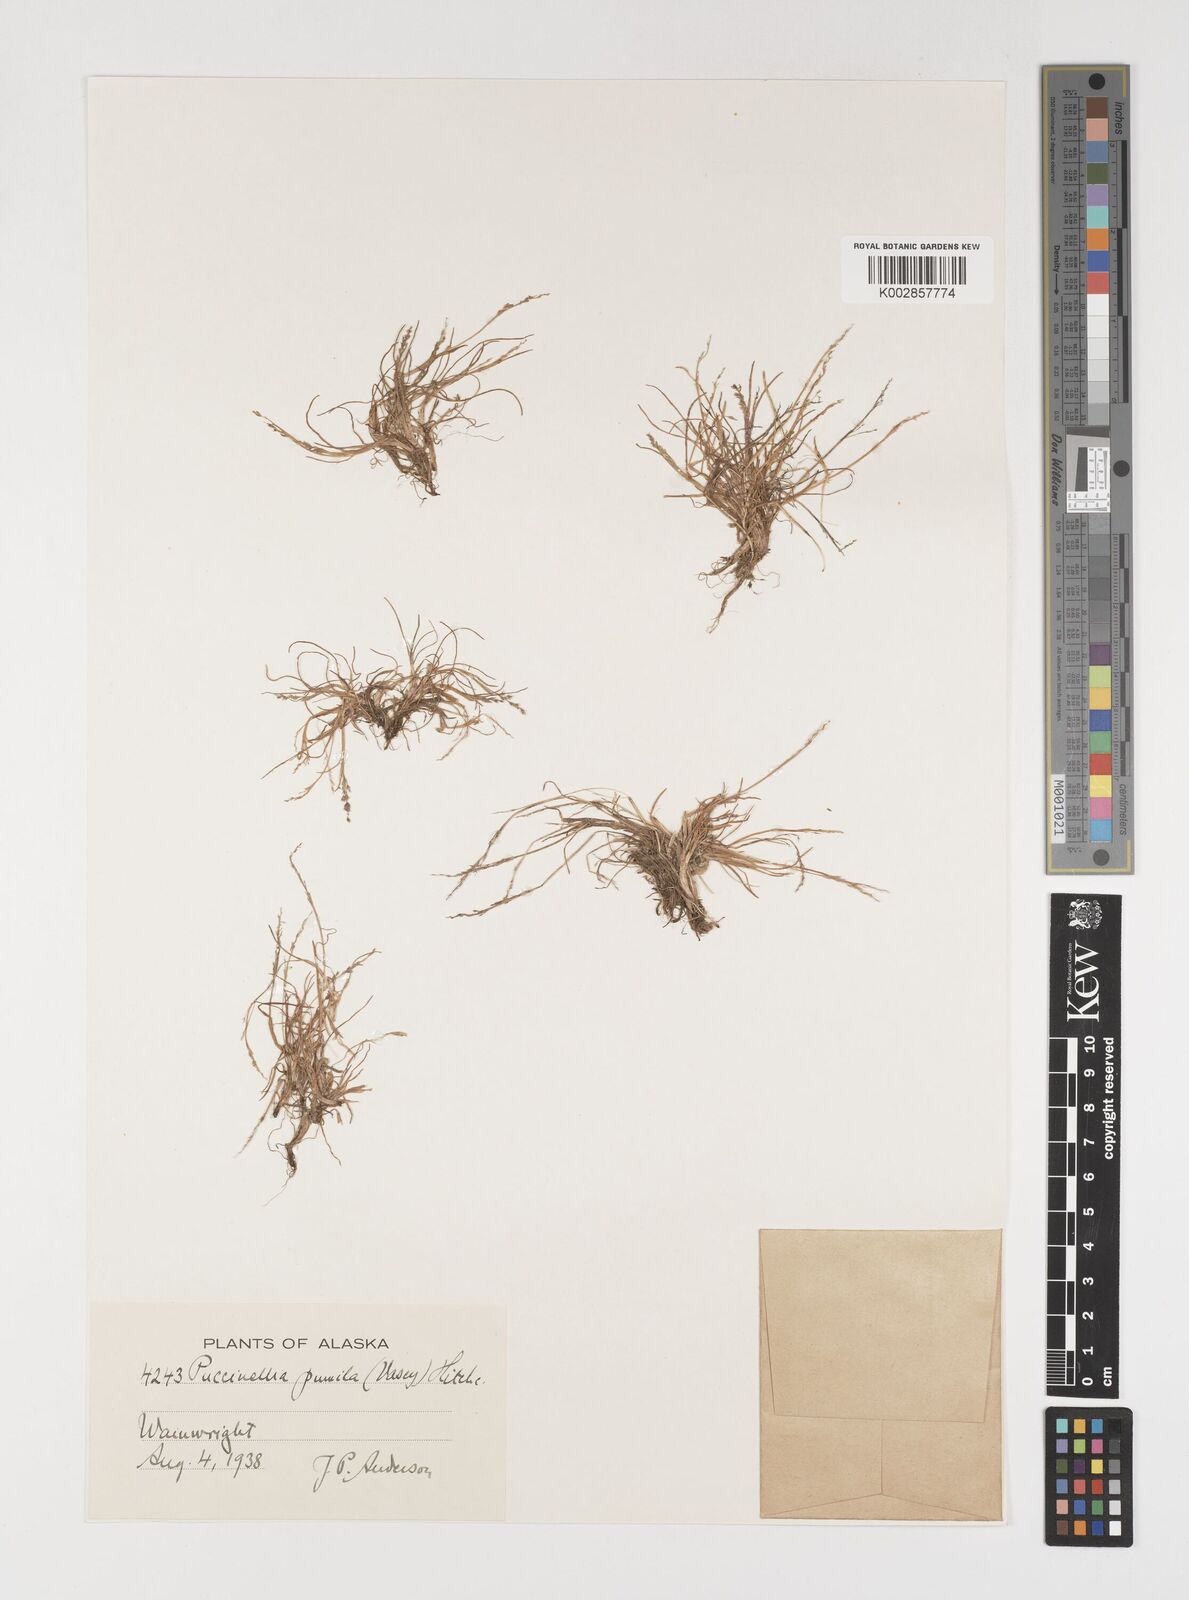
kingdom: Plantae
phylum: Tracheophyta
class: Liliopsida
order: Poales
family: Poaceae
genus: Puccinellia
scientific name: Puccinellia pumila
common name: Dwarf alkaligrass
